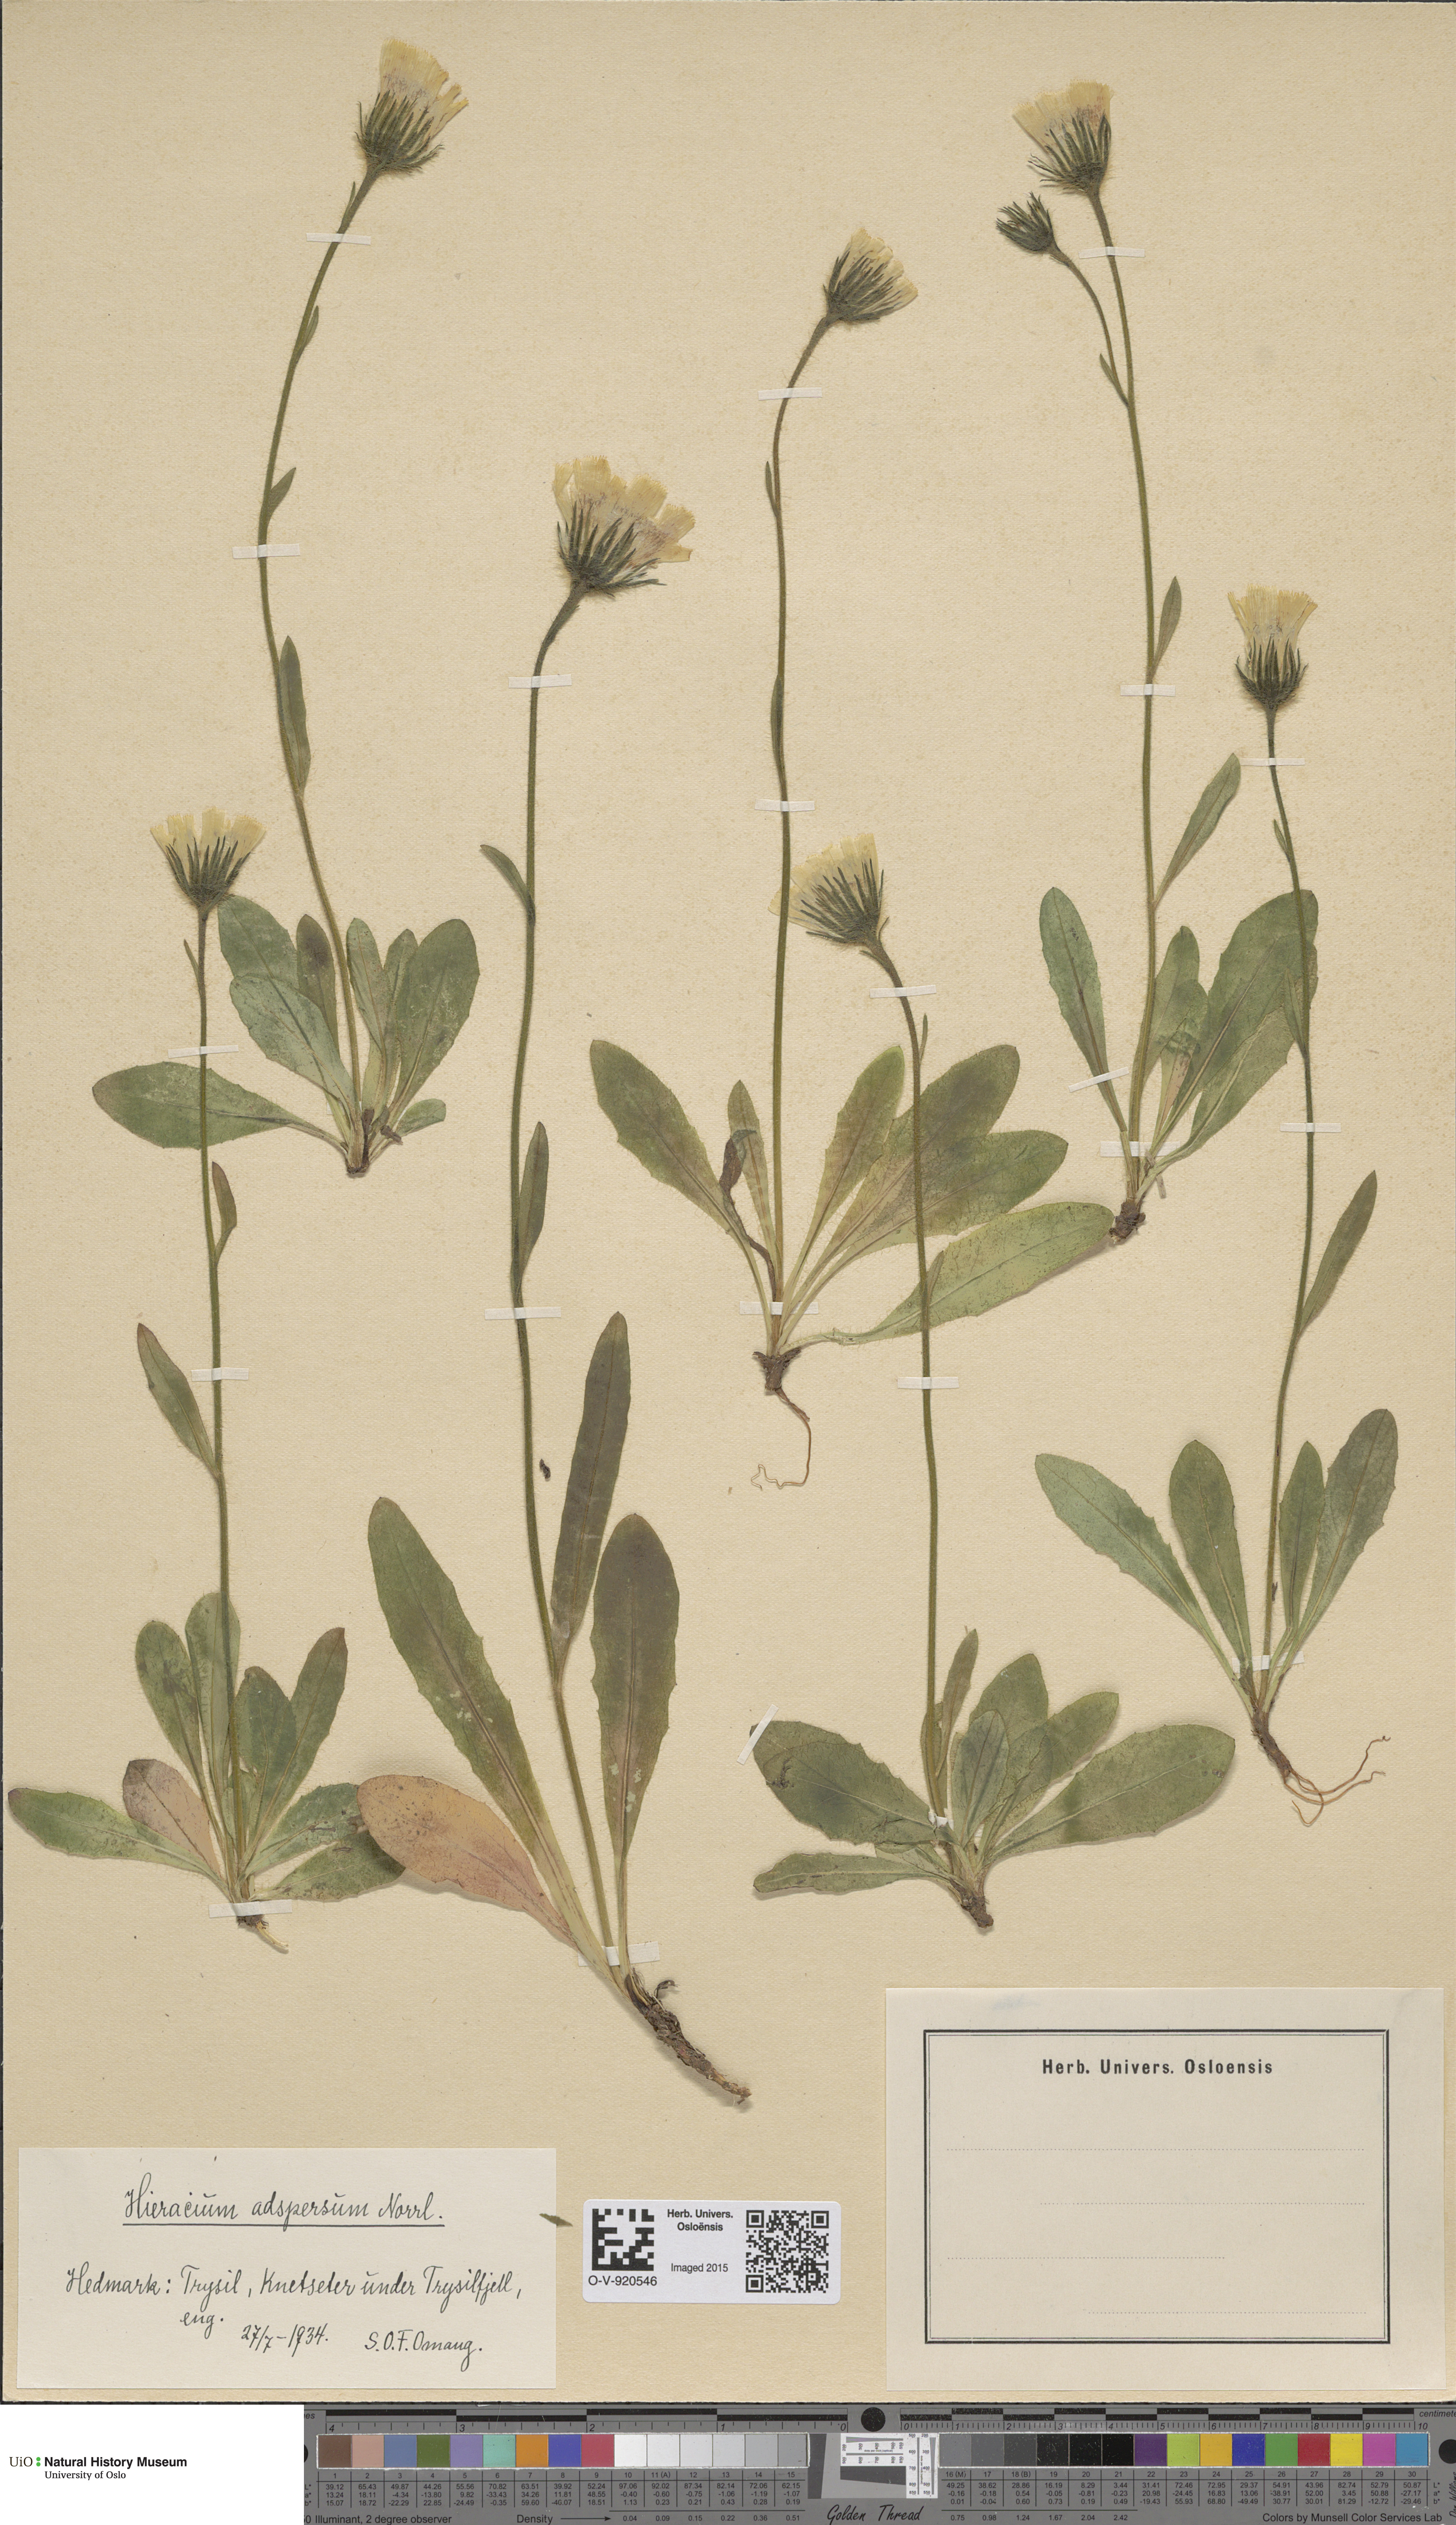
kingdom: Plantae
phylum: Tracheophyta
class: Magnoliopsida
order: Asterales
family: Asteraceae
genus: Hieracium
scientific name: Hieracium alpinum
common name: Alpine hawkweed
